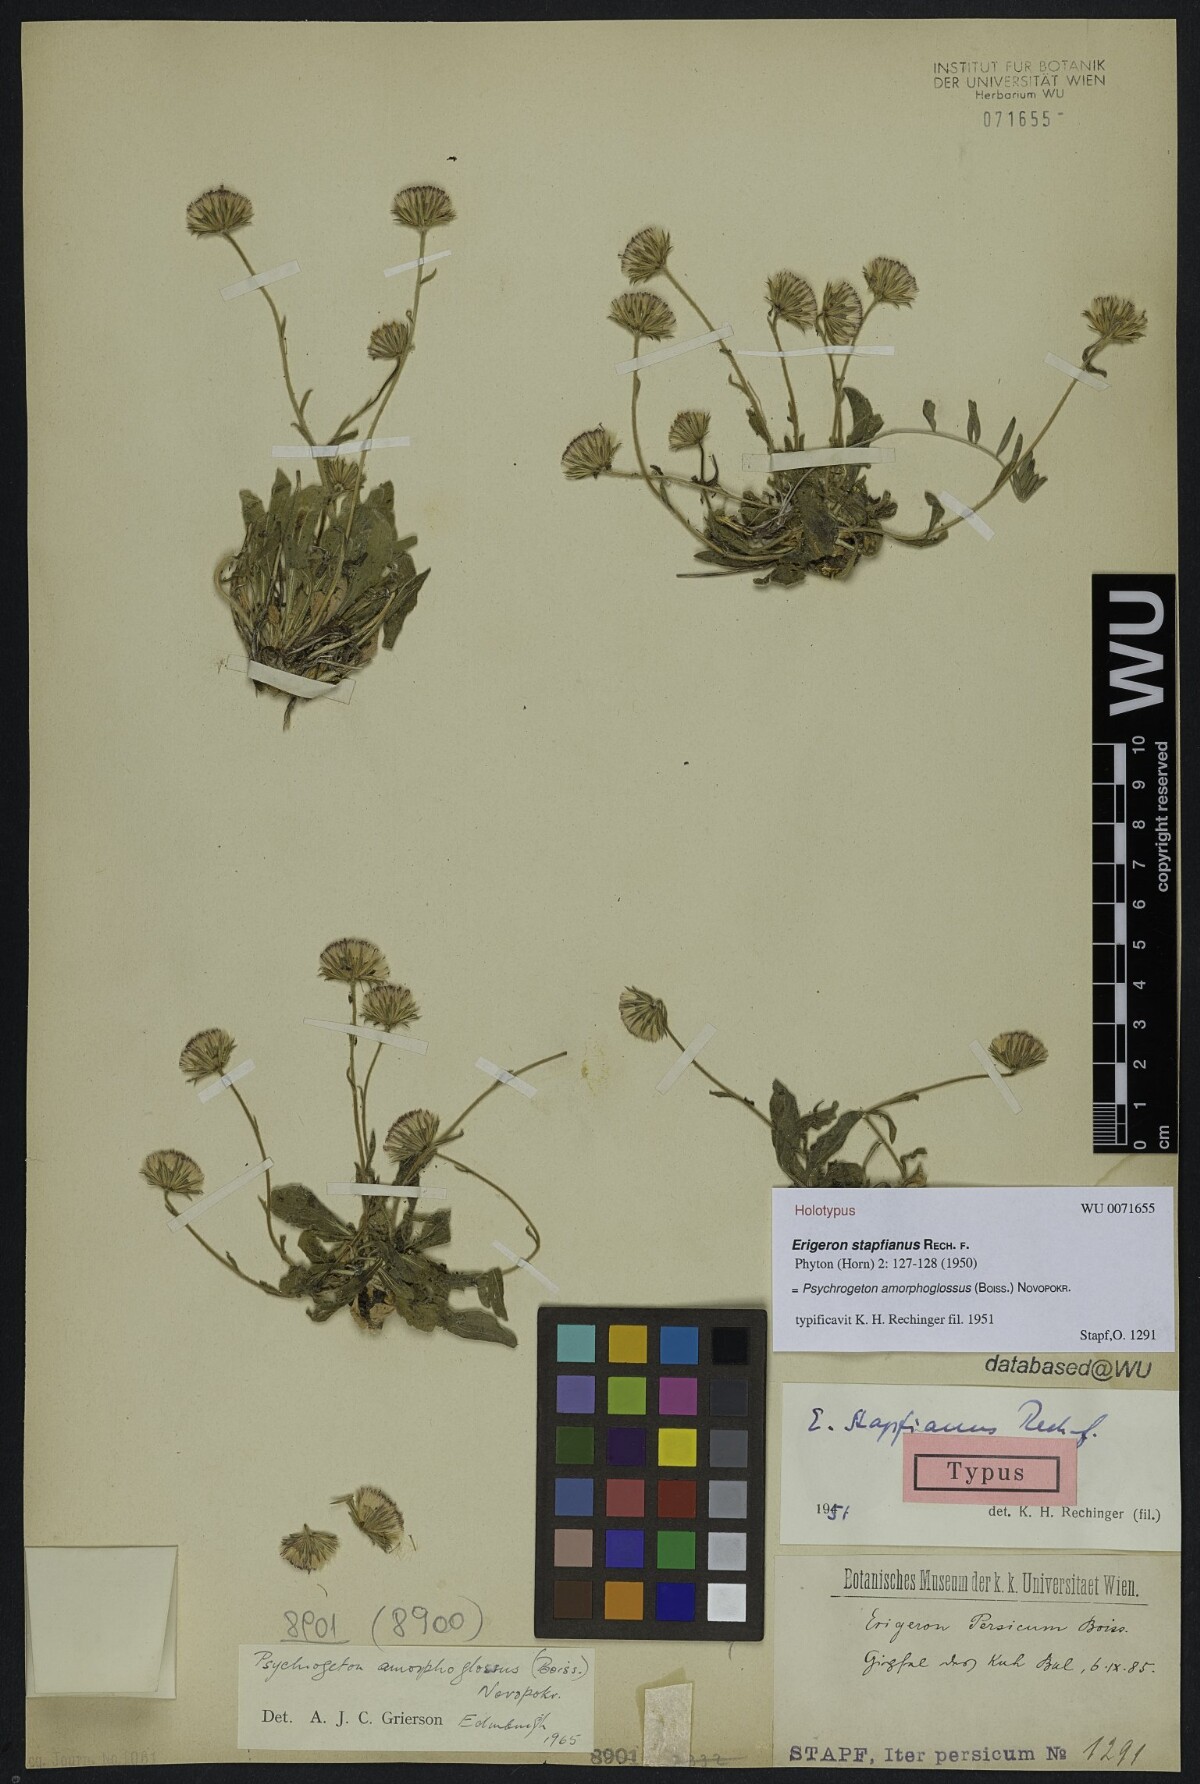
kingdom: Plantae
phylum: Tracheophyta
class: Magnoliopsida
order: Asterales
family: Asteraceae
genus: Psychrogeton
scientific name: Psychrogeton amorphoglossus
